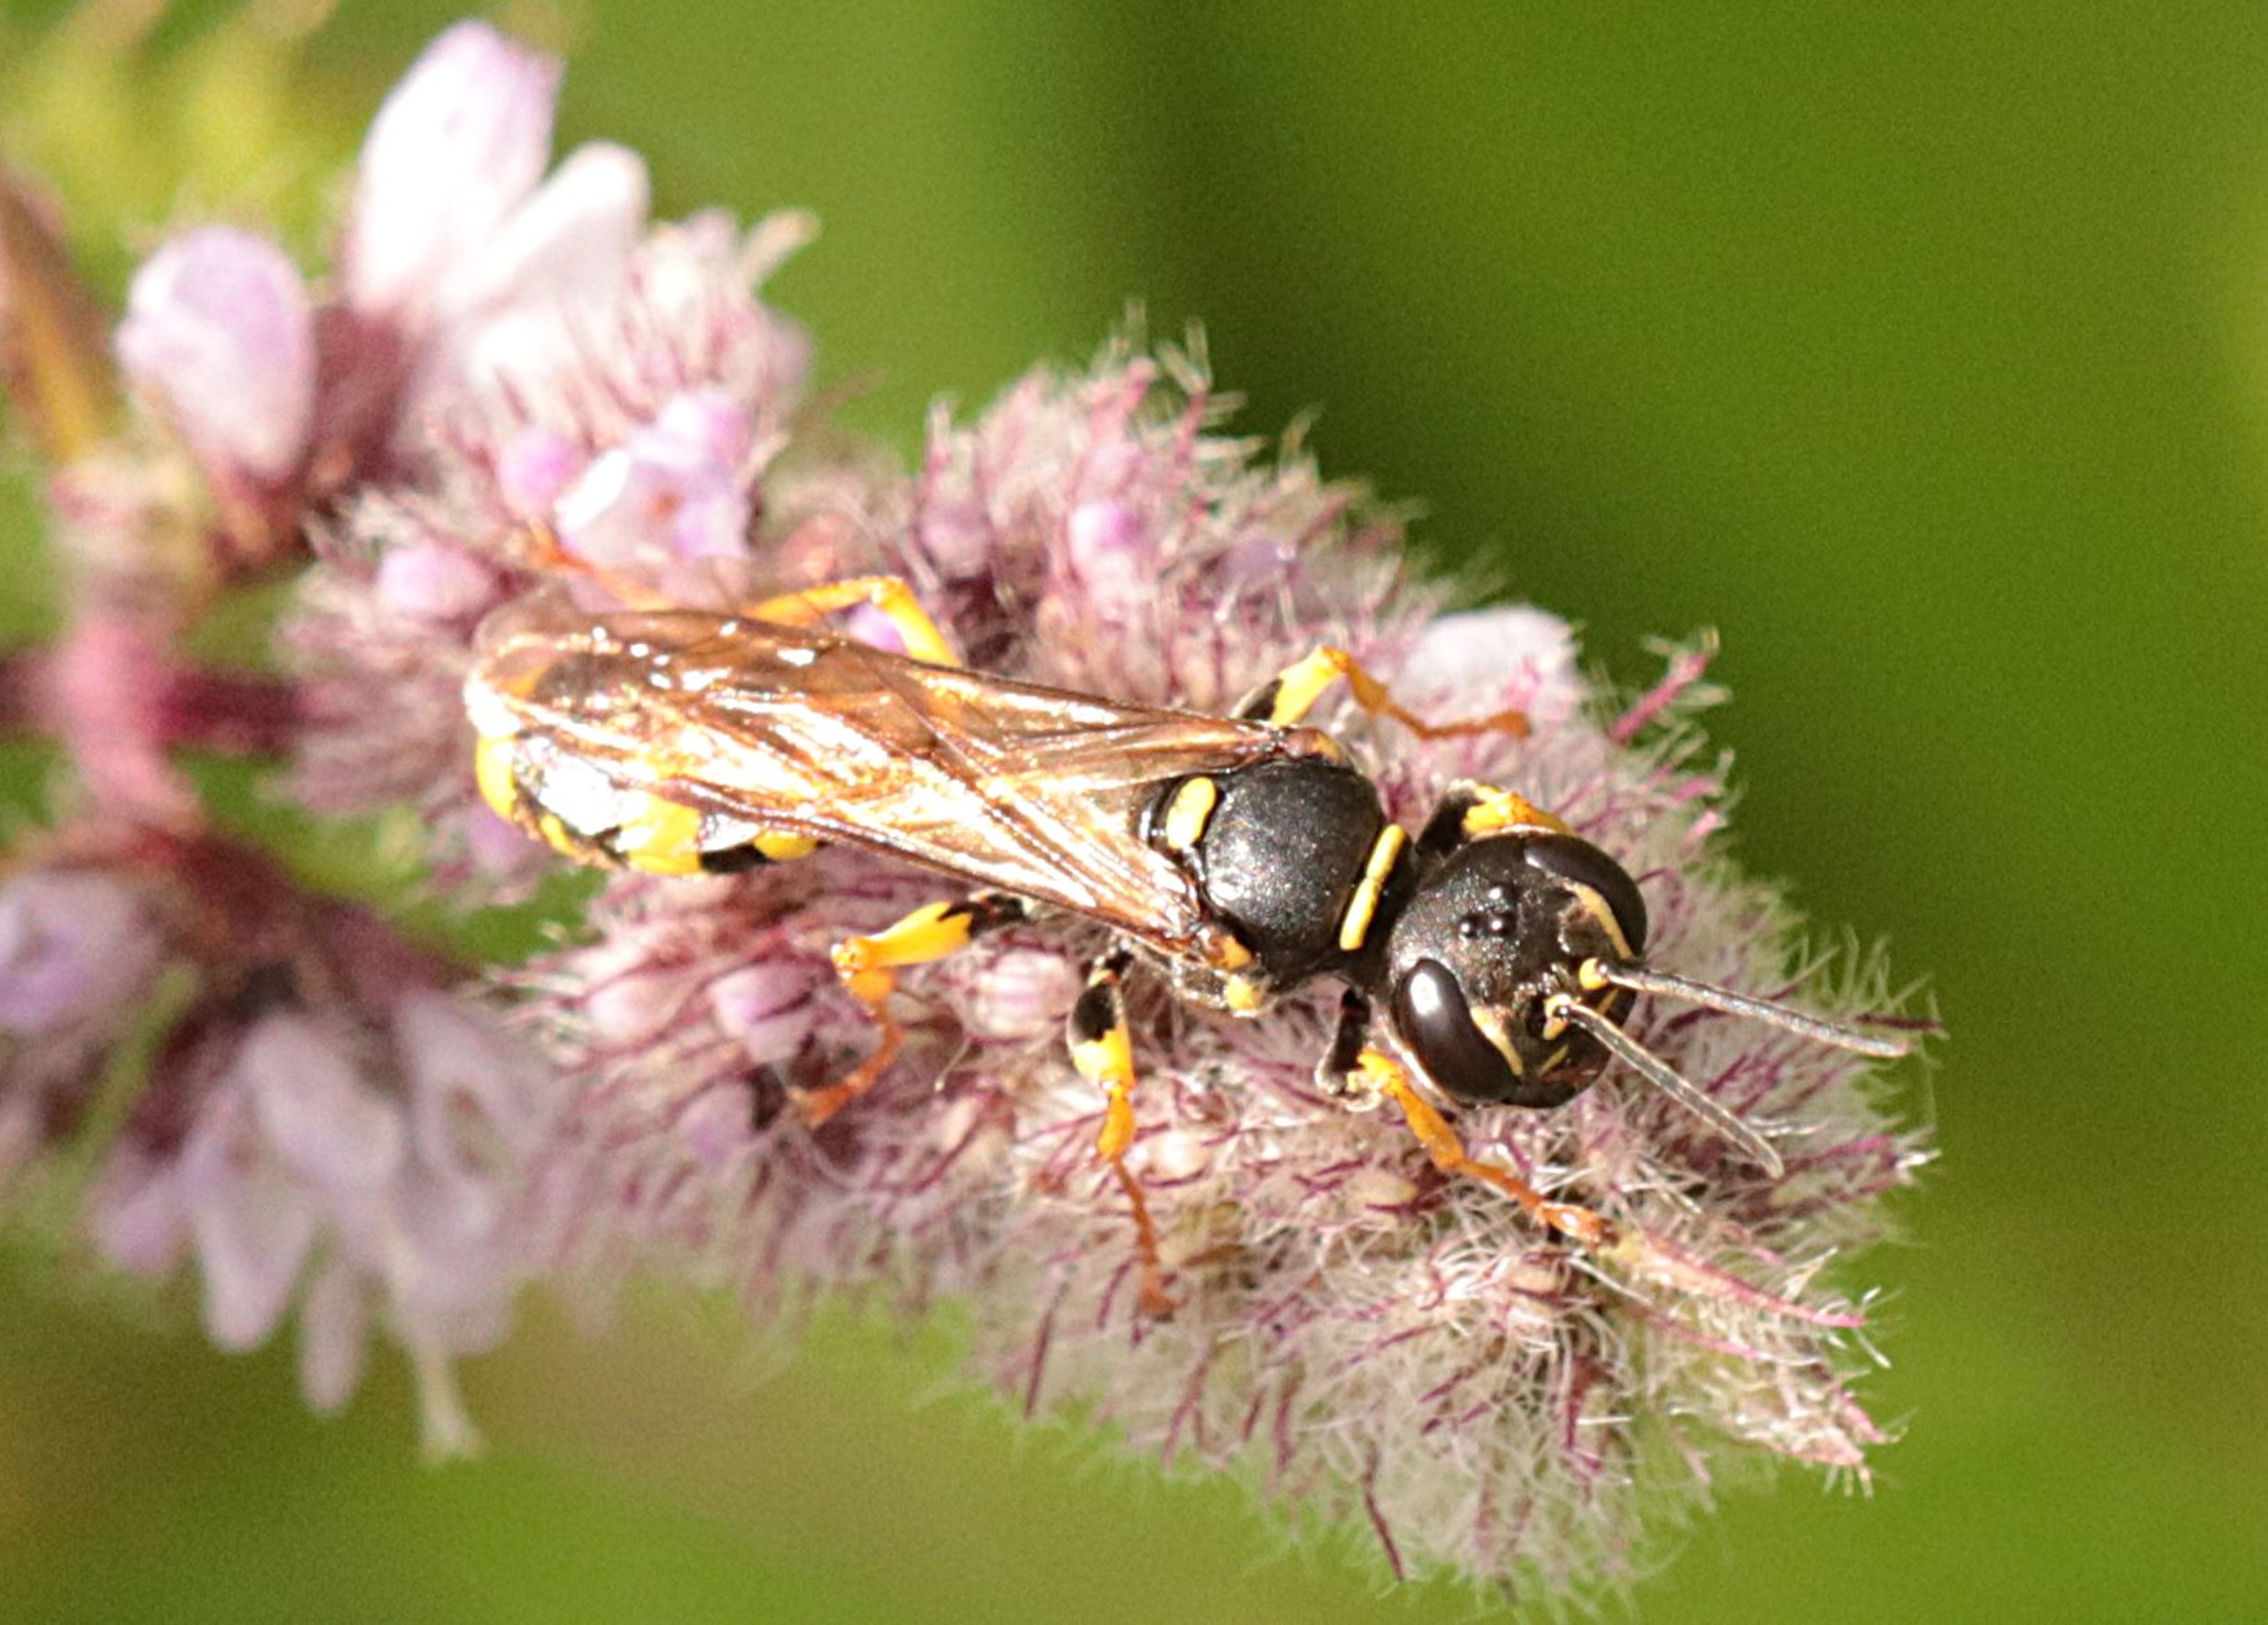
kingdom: Animalia
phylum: Arthropoda
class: Insecta
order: Hymenoptera
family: Crabronidae
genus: Mellinus
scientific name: Mellinus arvensis
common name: Efterårsgravehveps
